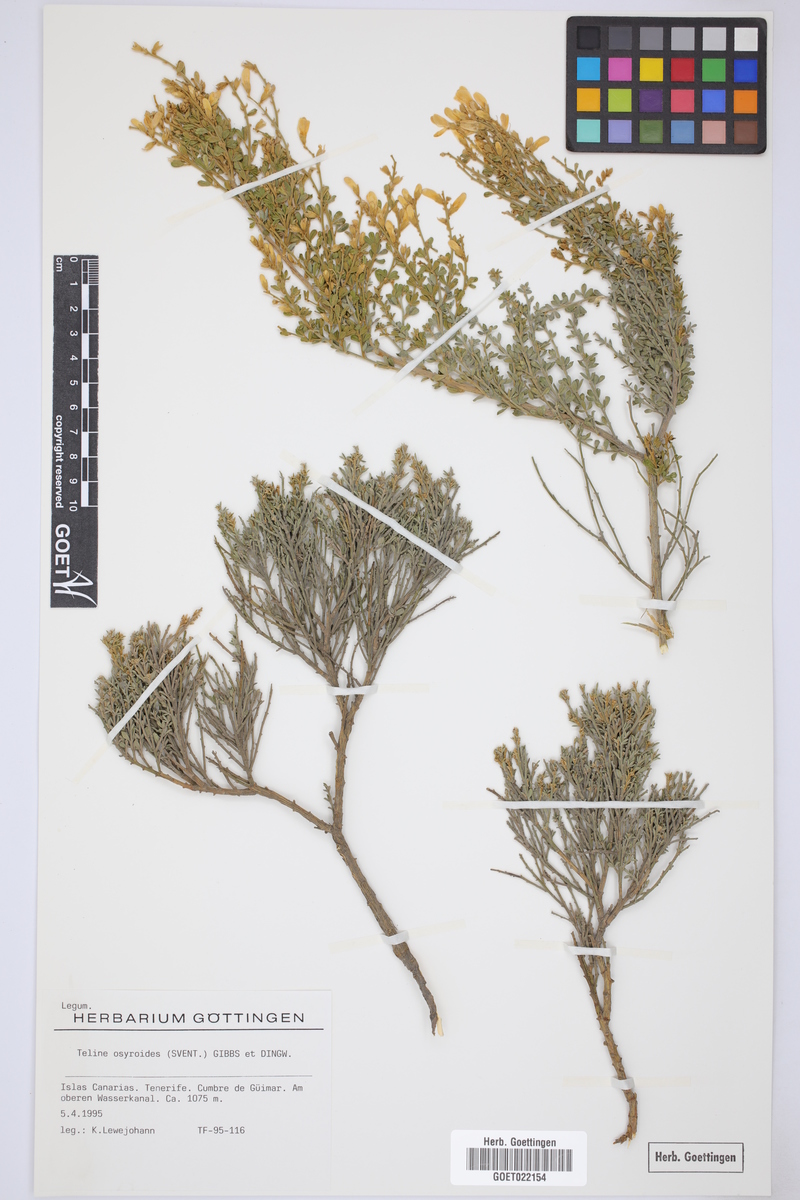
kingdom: Plantae
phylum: Tracheophyta
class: Magnoliopsida
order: Fabales
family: Fabaceae
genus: Cytisus
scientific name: Cytisus osyroides
